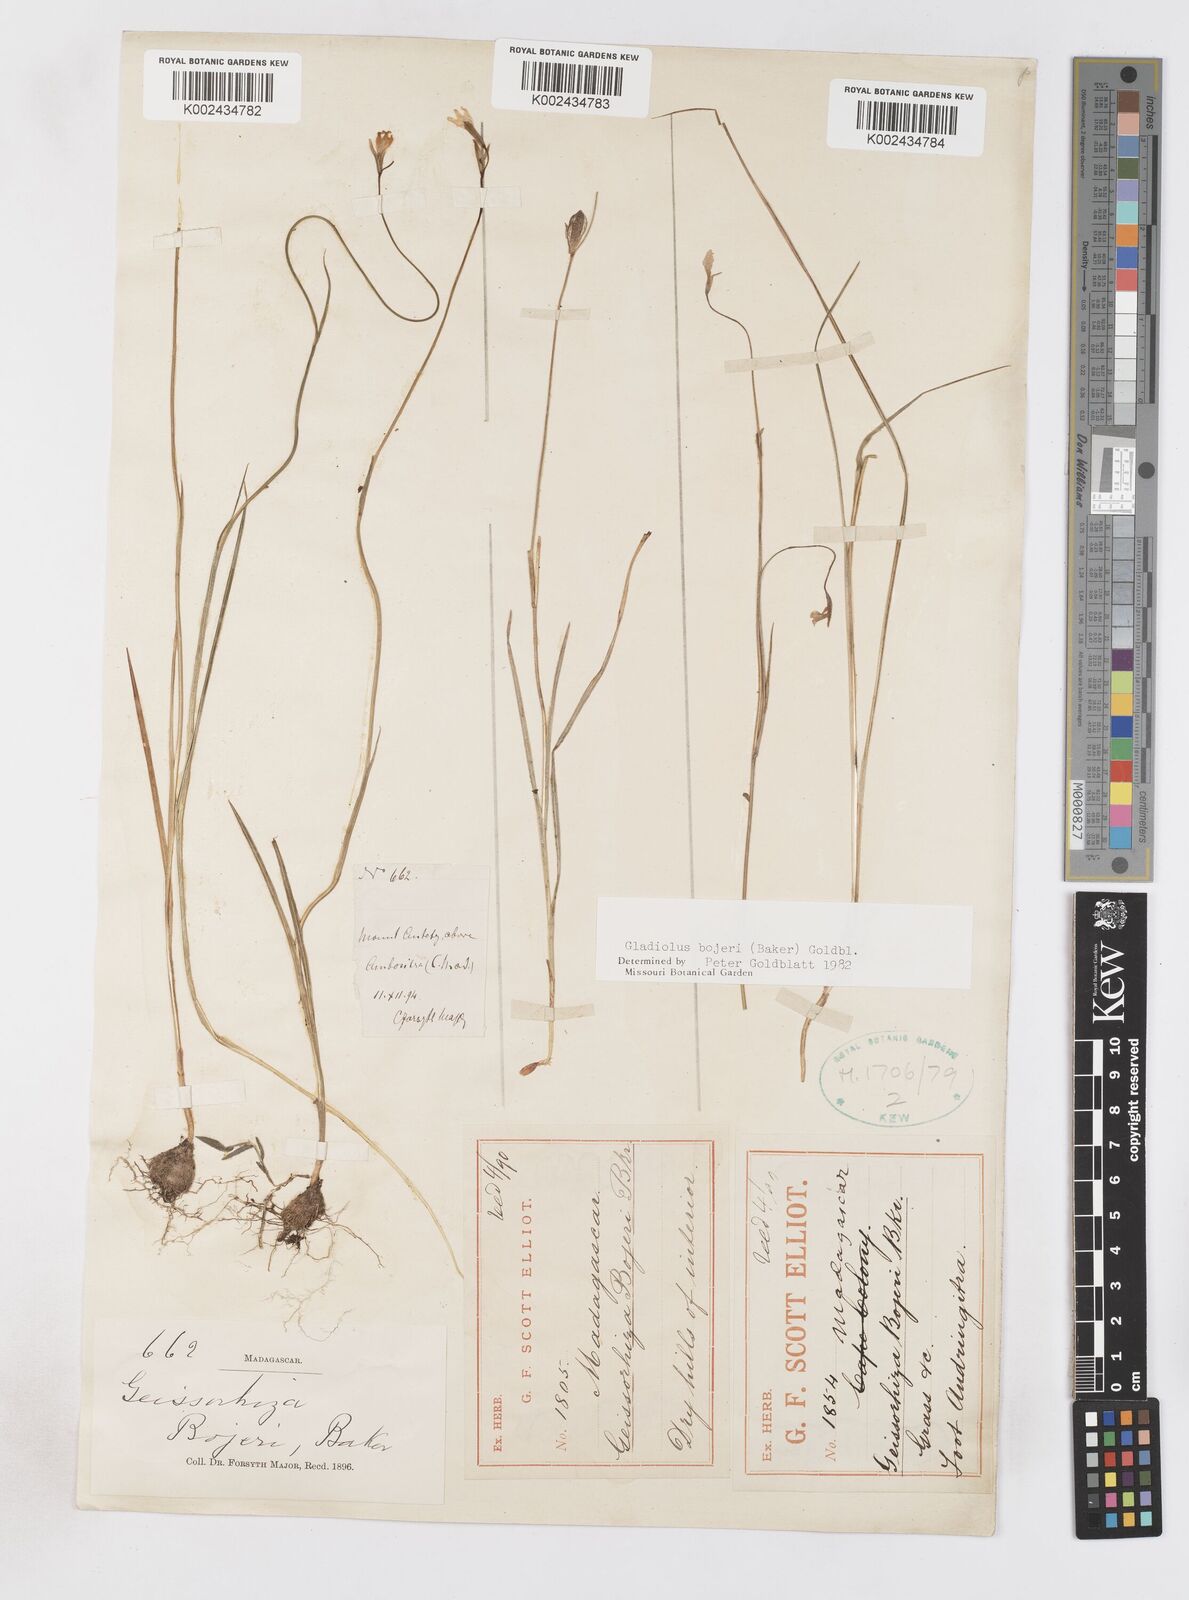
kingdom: Plantae
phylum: Tracheophyta
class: Liliopsida
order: Asparagales
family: Iridaceae
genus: Gladiolus
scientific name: Gladiolus bojeri
